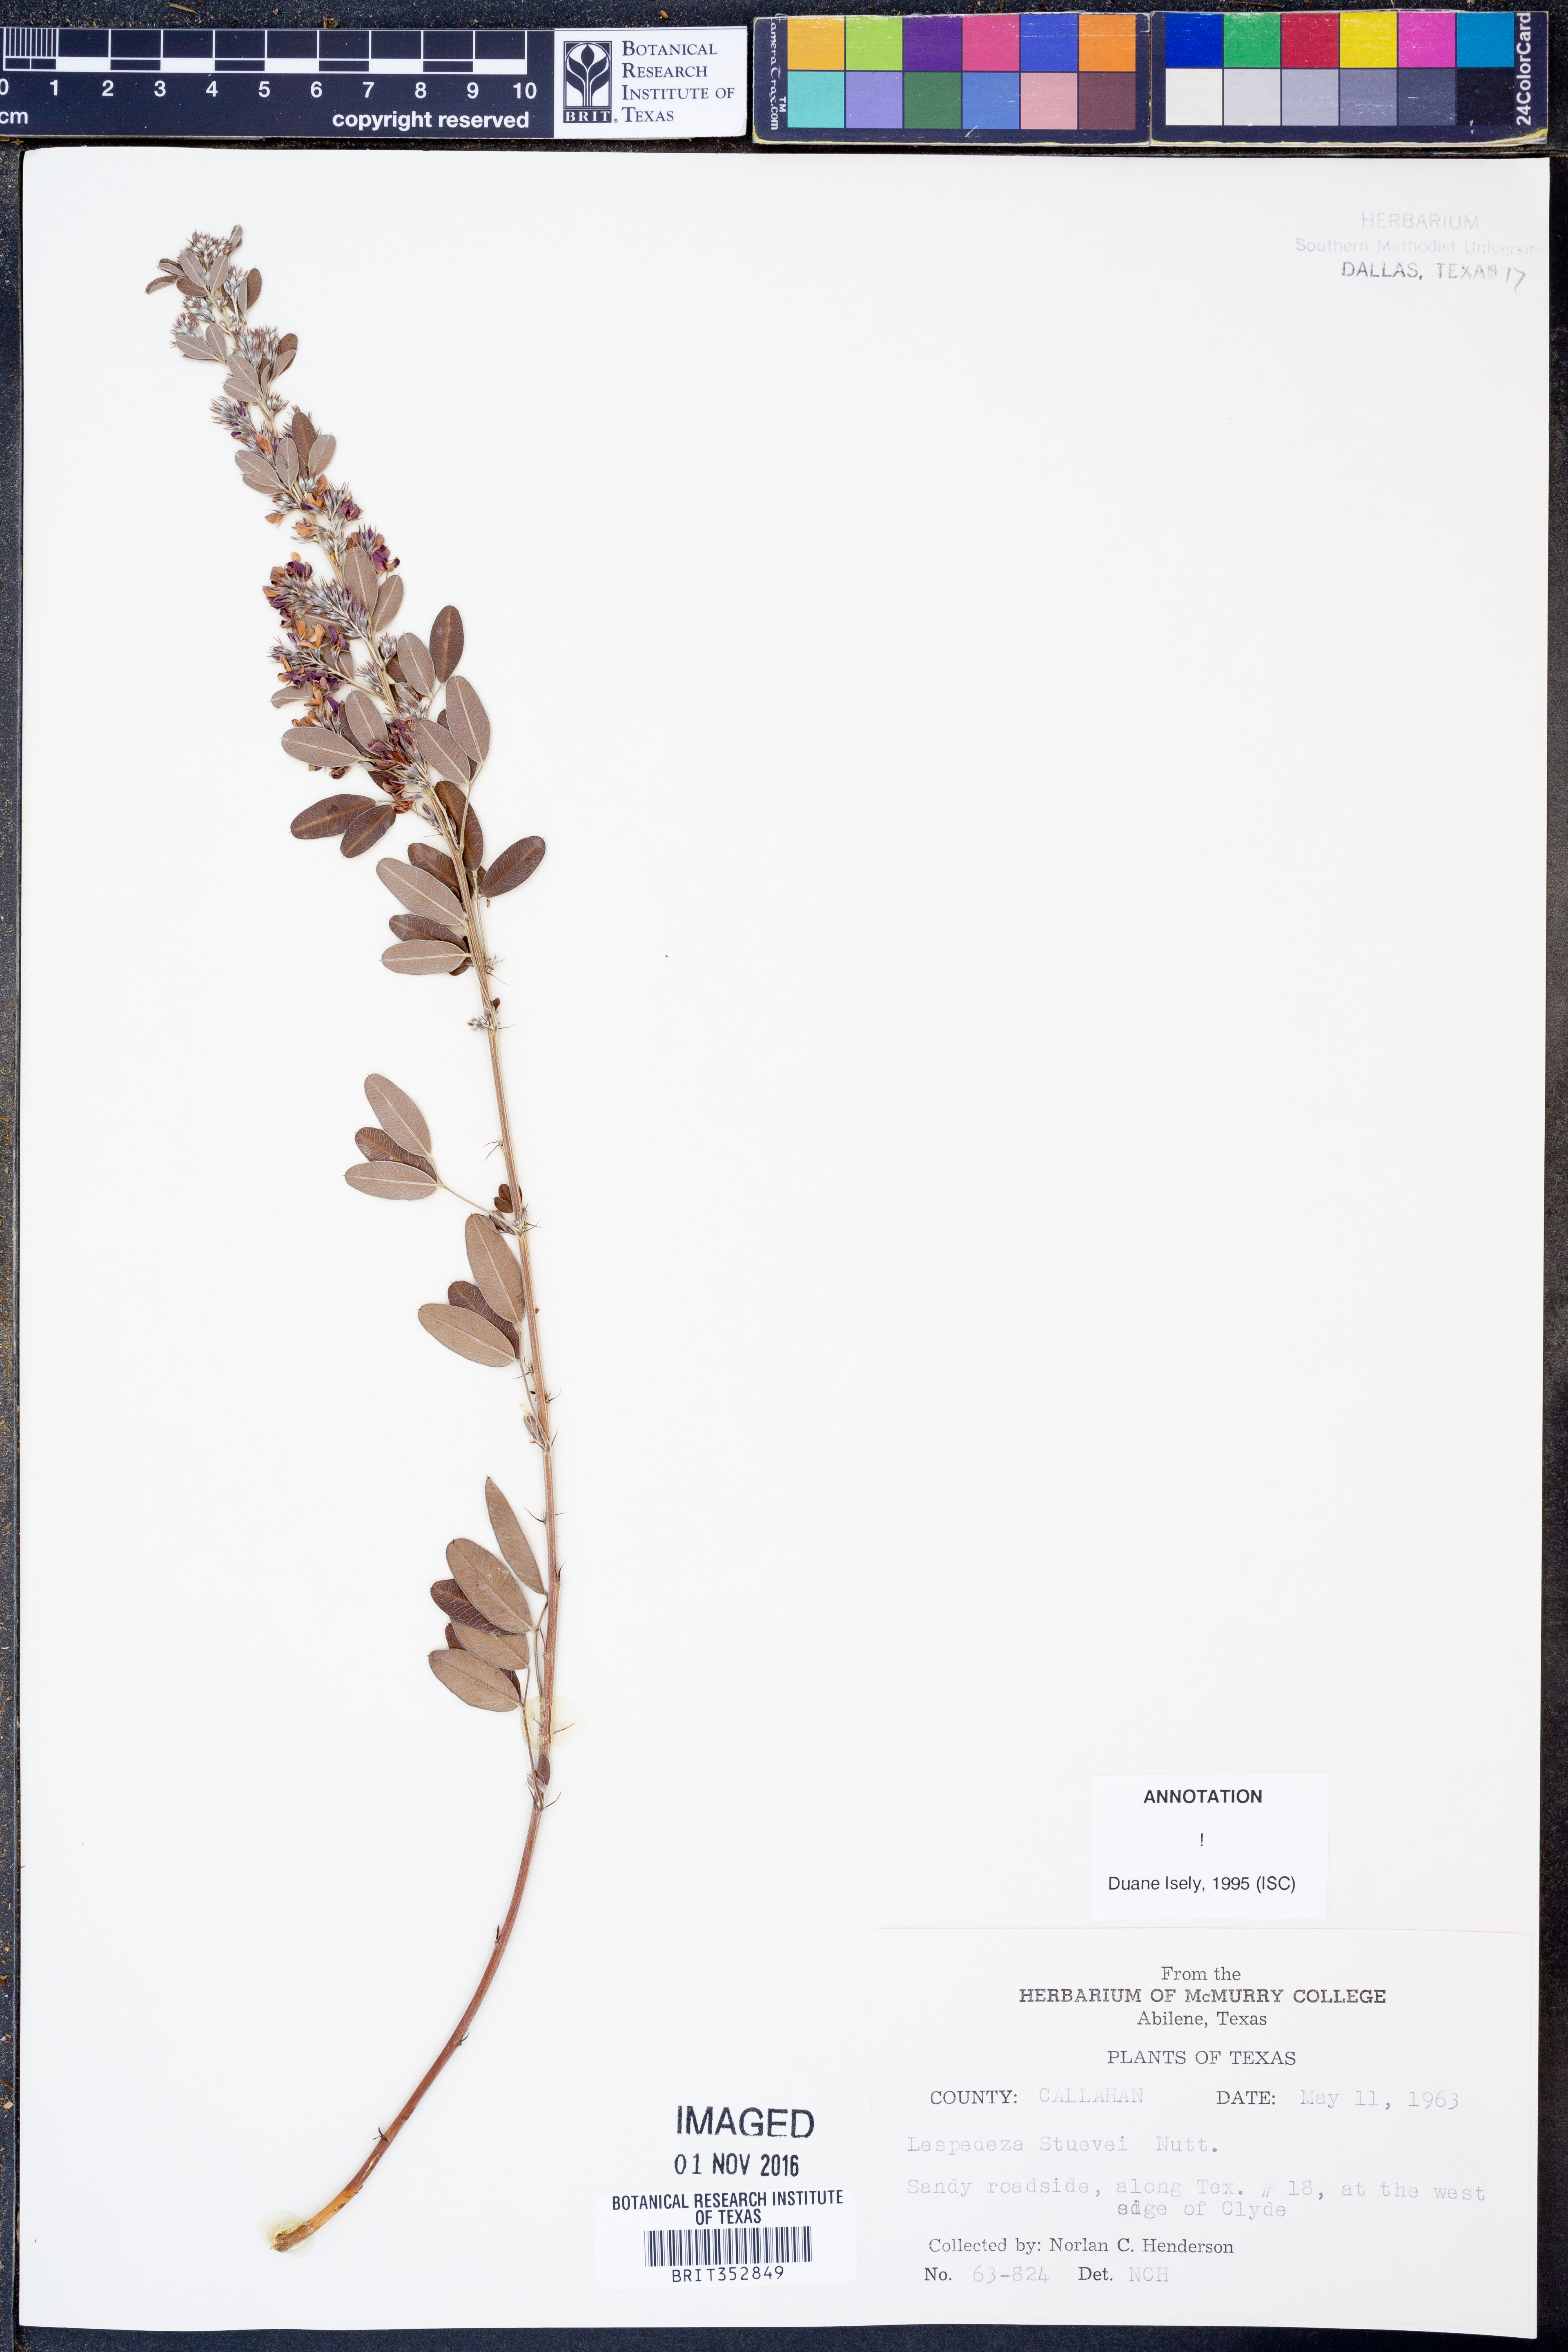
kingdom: Plantae
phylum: Tracheophyta
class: Magnoliopsida
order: Fabales
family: Fabaceae
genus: Lespedeza
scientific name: Lespedeza stuevei
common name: Tall bush-clover
